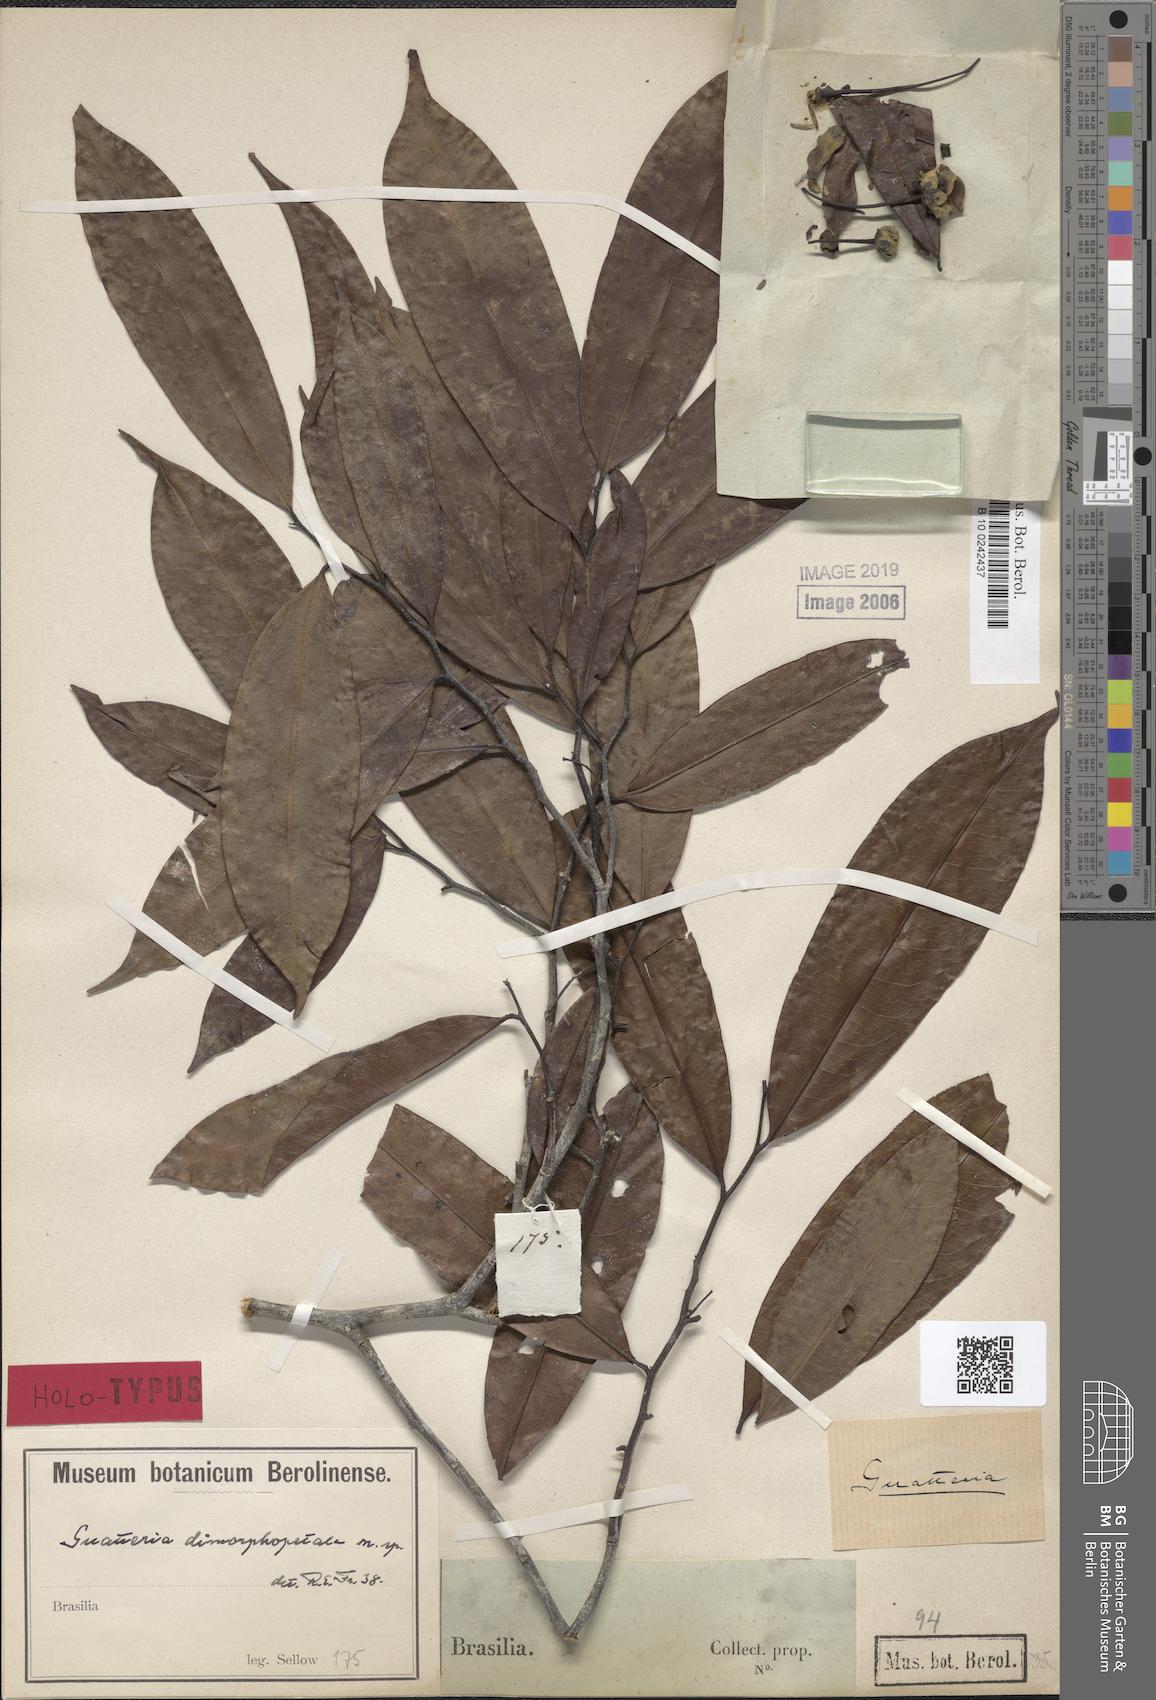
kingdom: Plantae
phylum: Tracheophyta
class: Magnoliopsida
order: Magnoliales
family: Annonaceae
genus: Guatteria
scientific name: Guatteria australis
